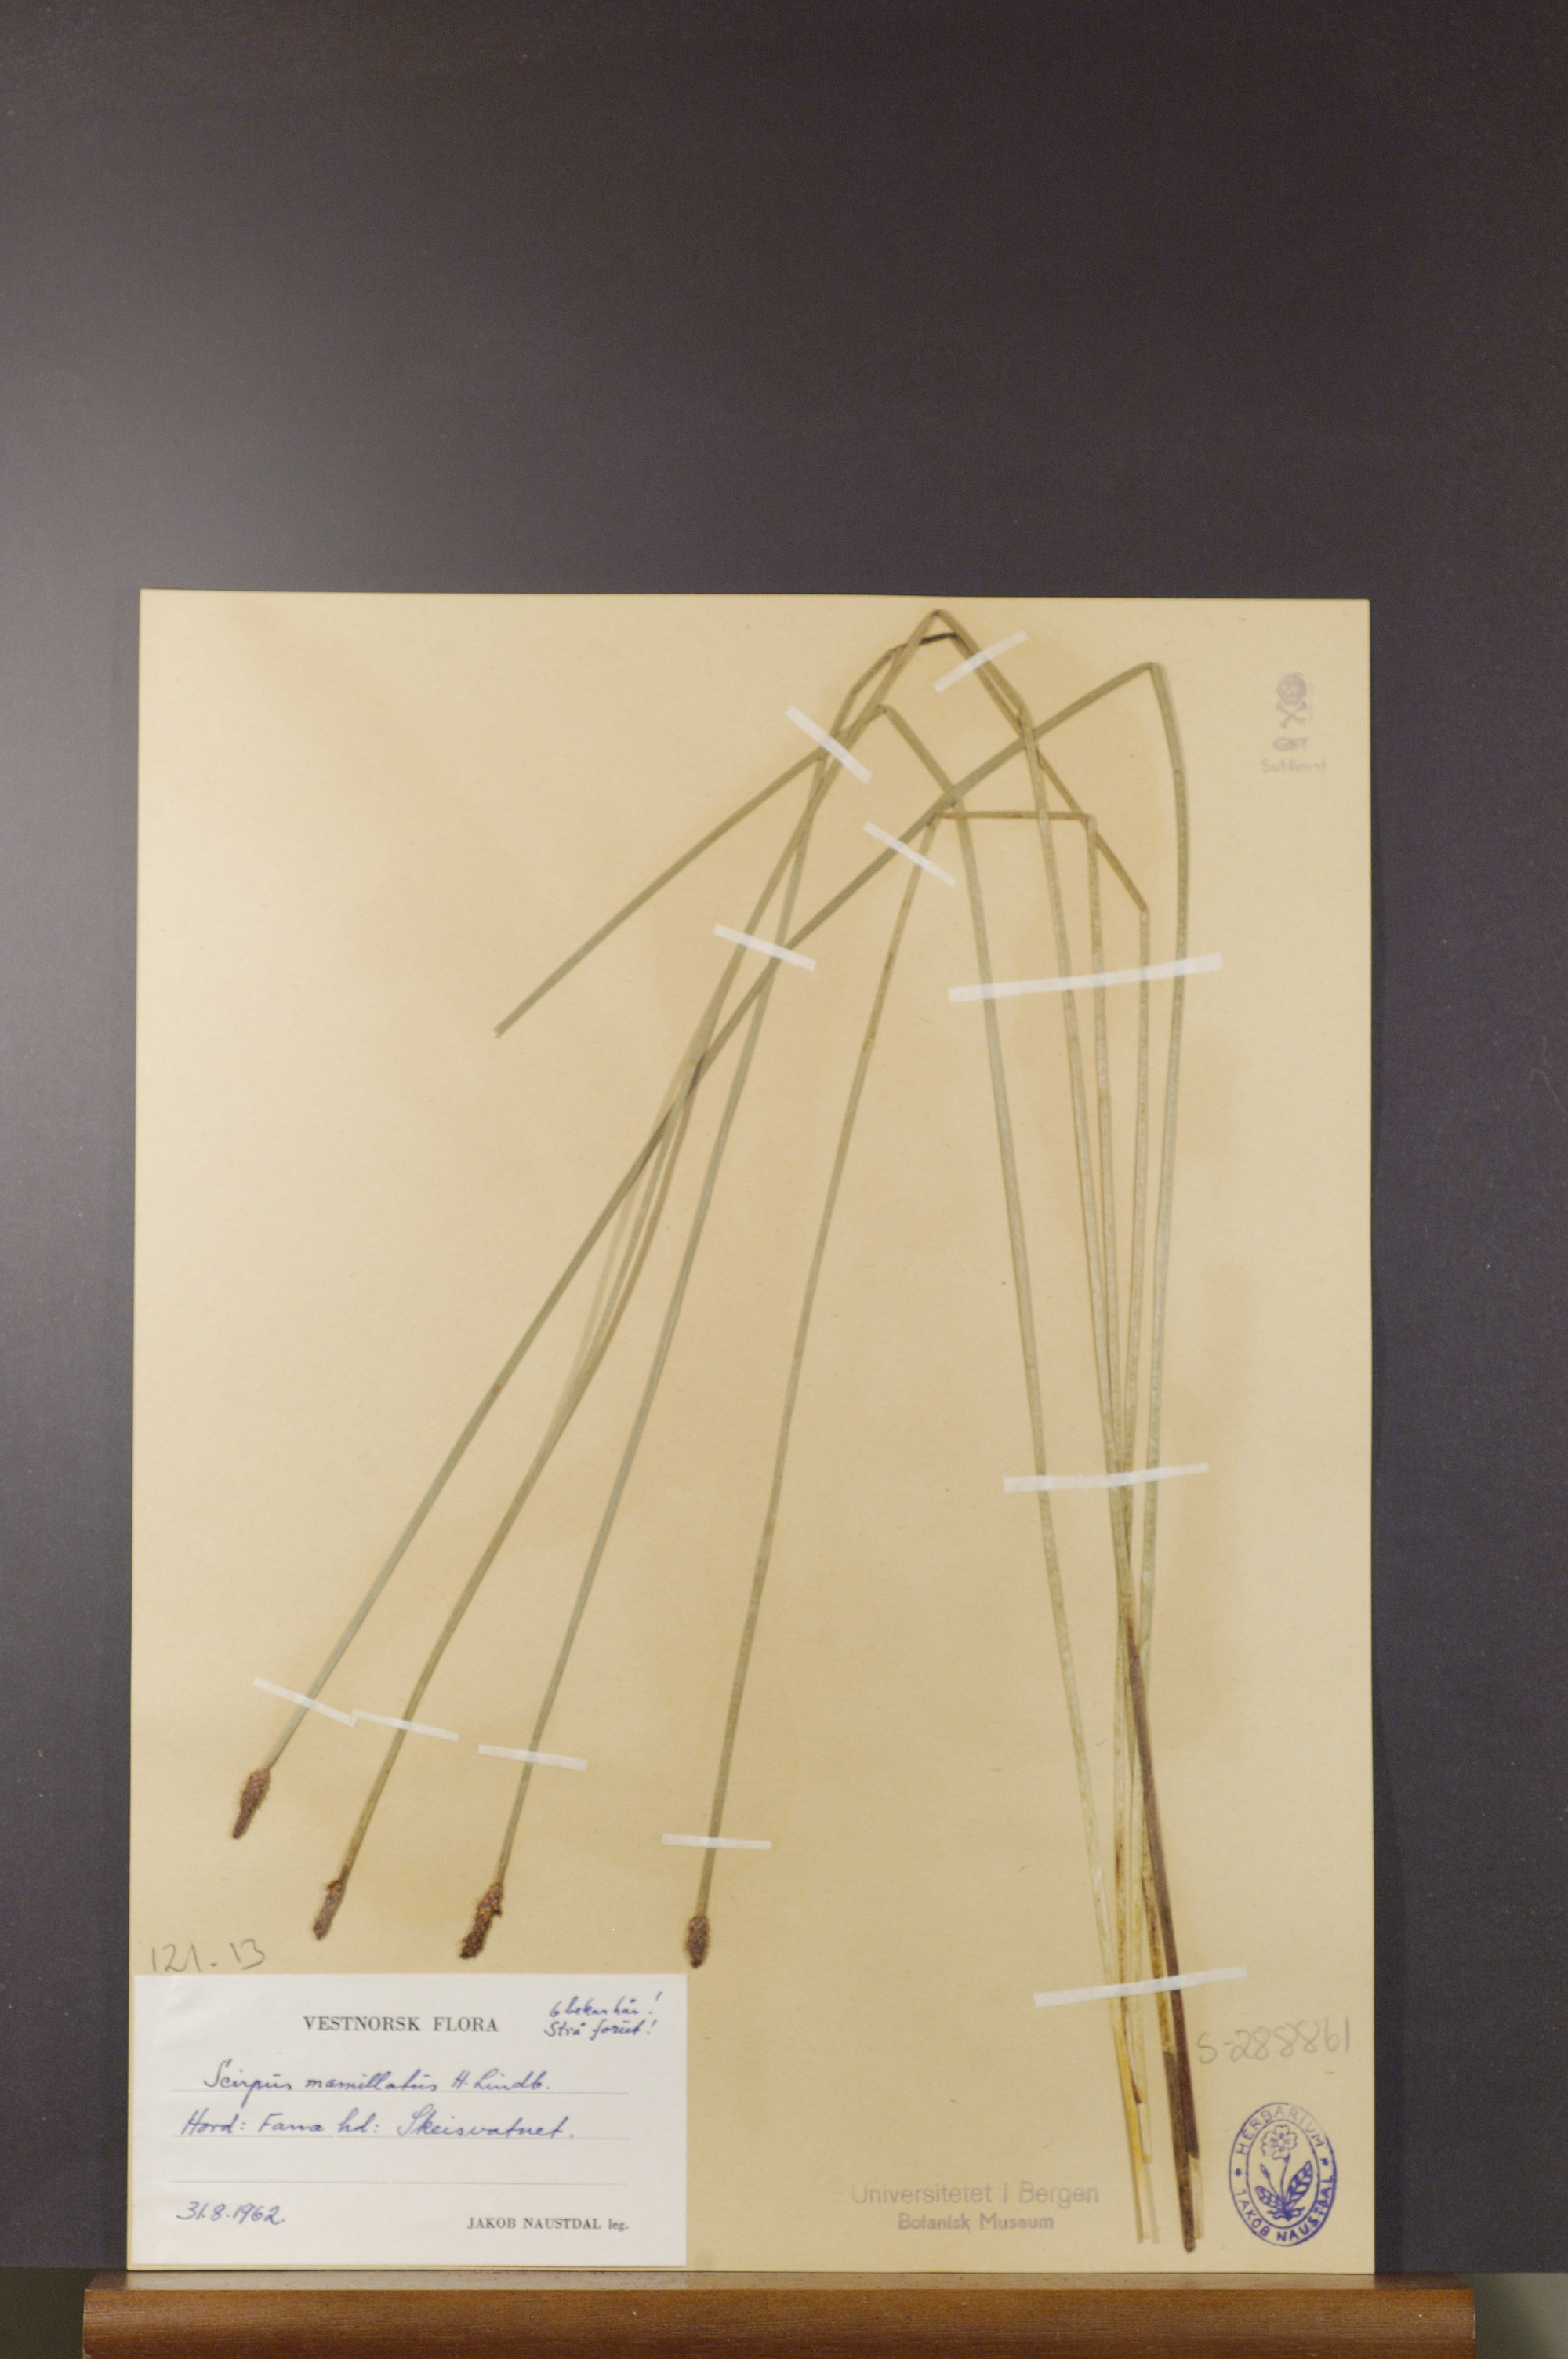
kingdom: Plantae
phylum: Tracheophyta
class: Liliopsida
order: Poales
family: Cyperaceae
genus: Eleocharis
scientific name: Eleocharis mamillata
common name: Northern spike-rush
